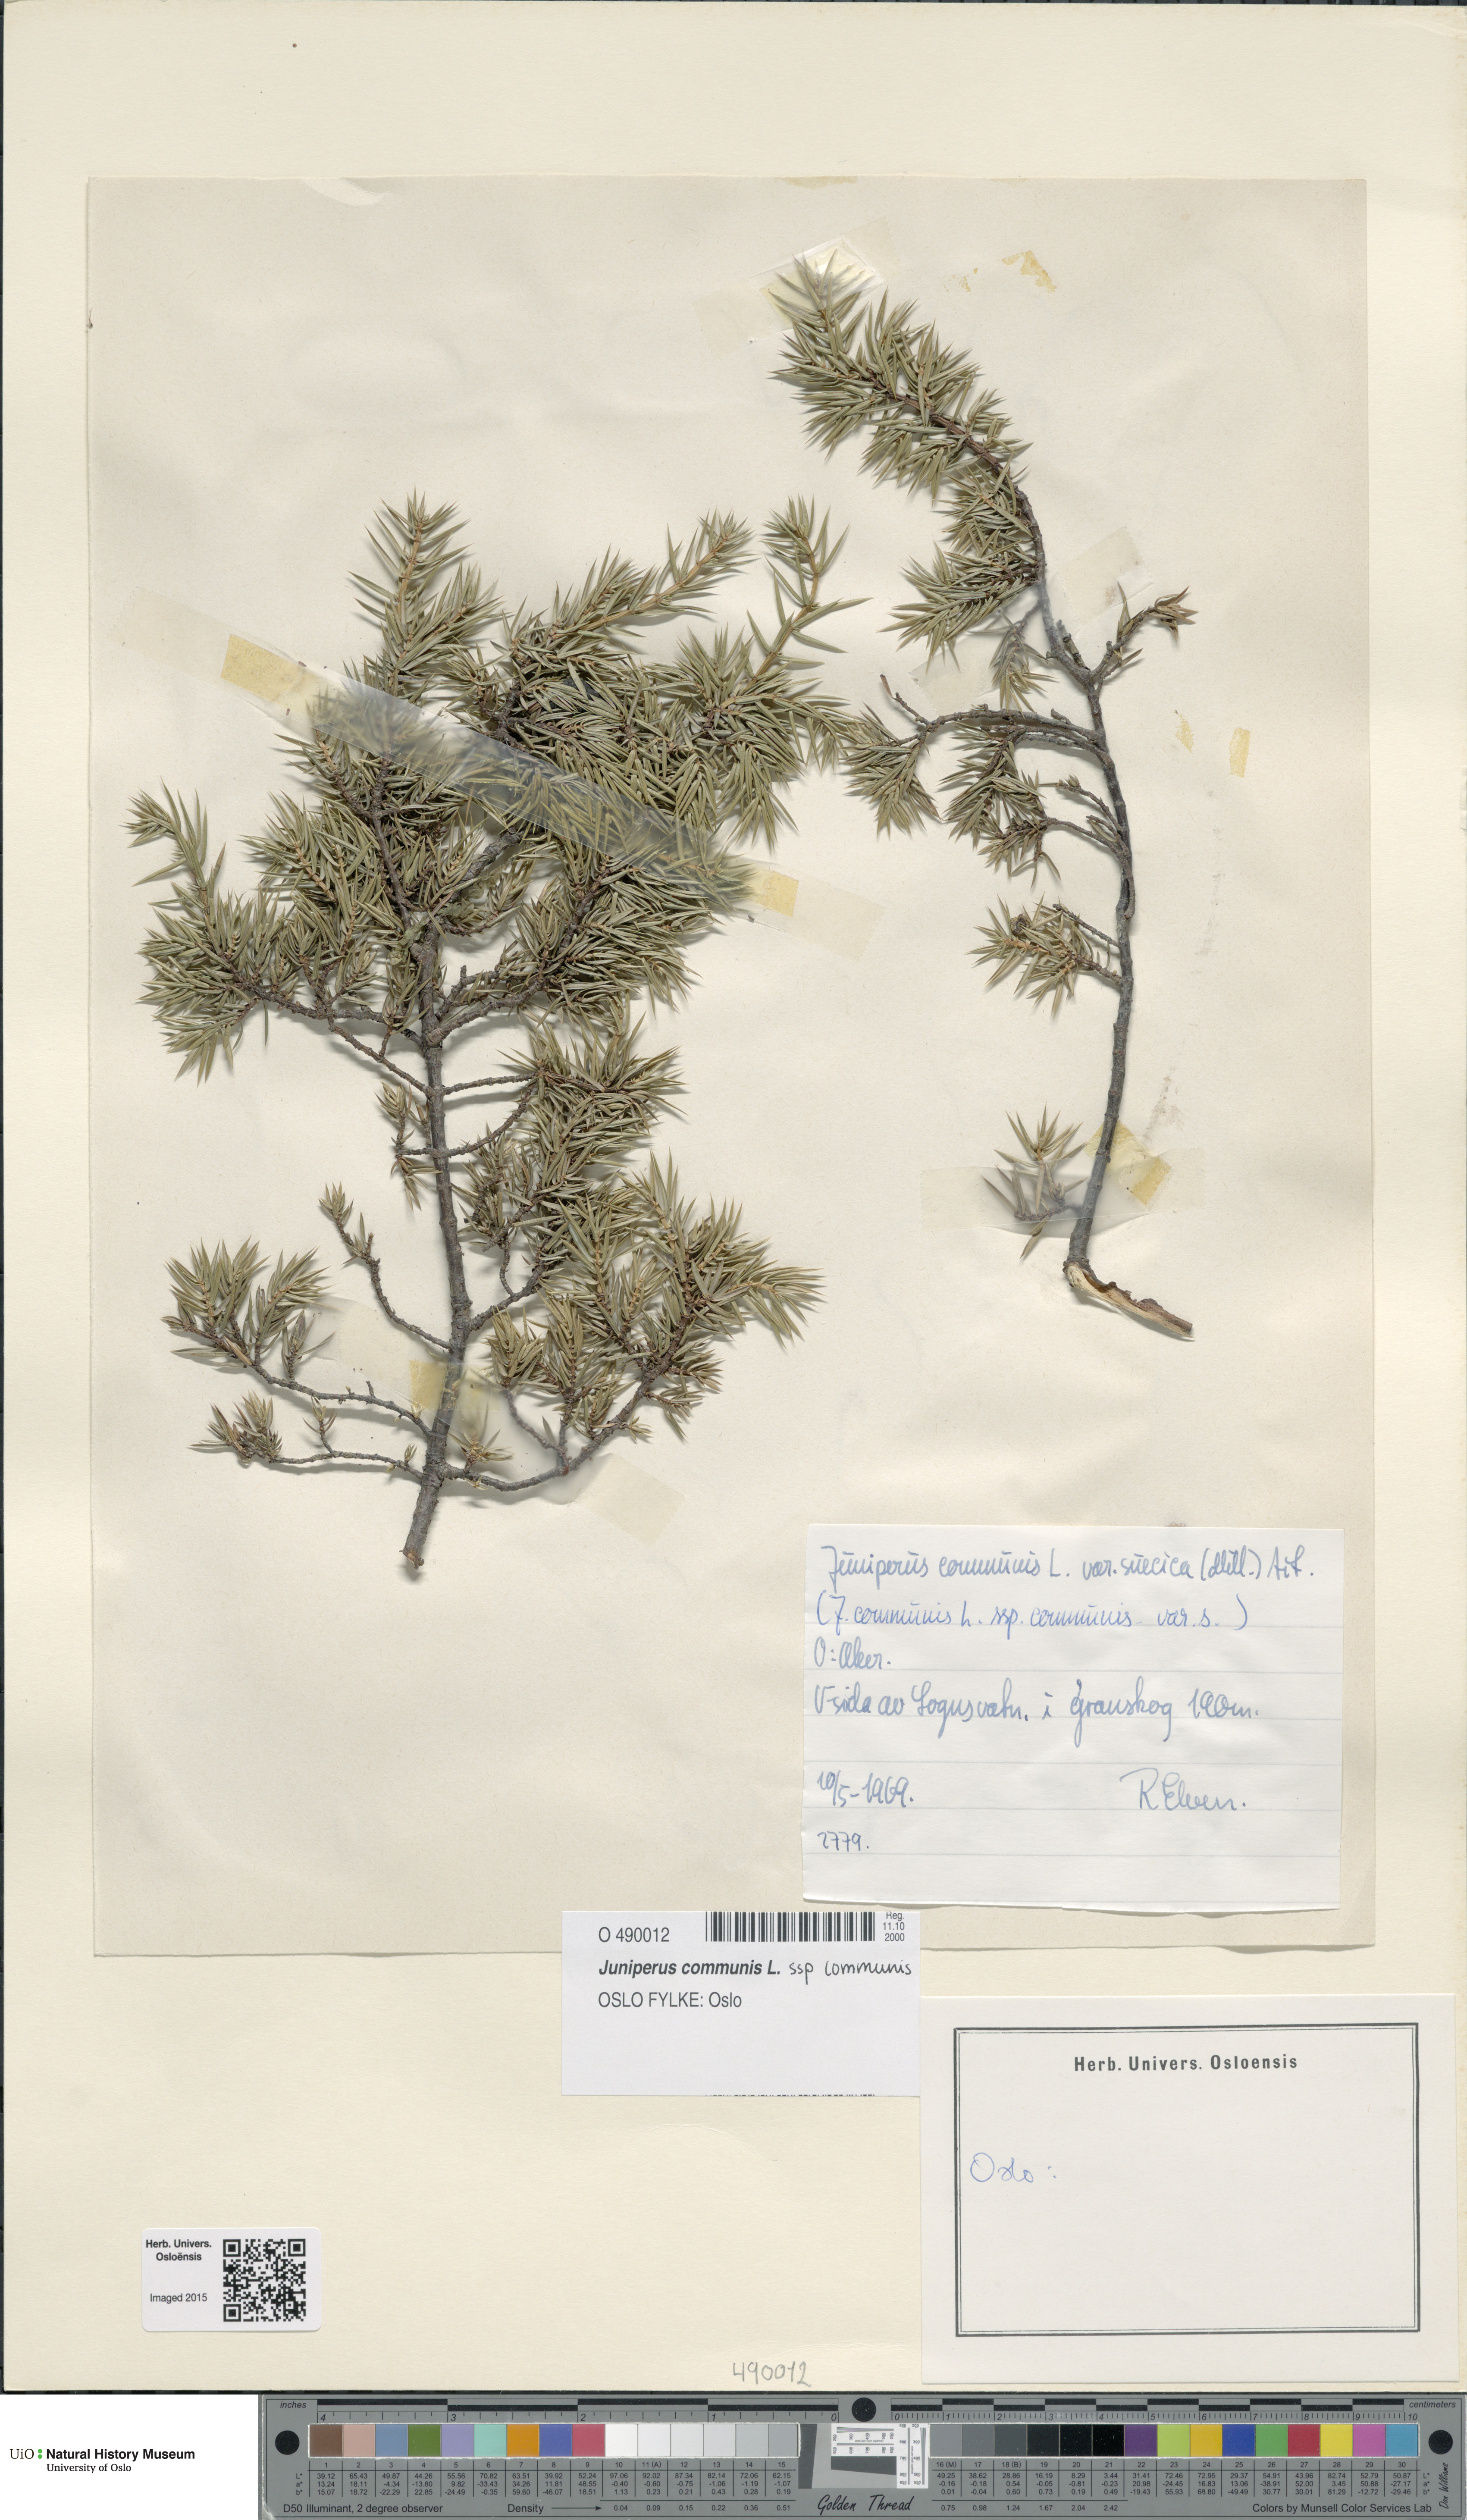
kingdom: Plantae
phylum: Tracheophyta
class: Pinopsida
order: Pinales
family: Cupressaceae
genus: Juniperus
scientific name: Juniperus communis
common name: Common juniper
